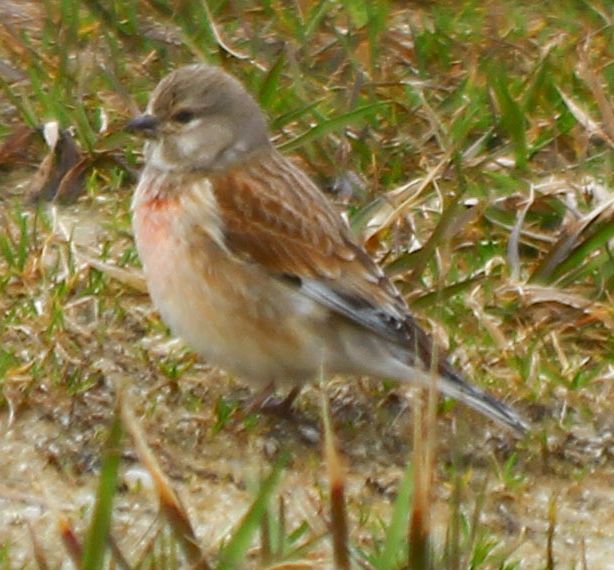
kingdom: Animalia
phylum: Chordata
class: Aves
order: Passeriformes
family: Fringillidae
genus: Linaria
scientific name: Linaria cannabina
